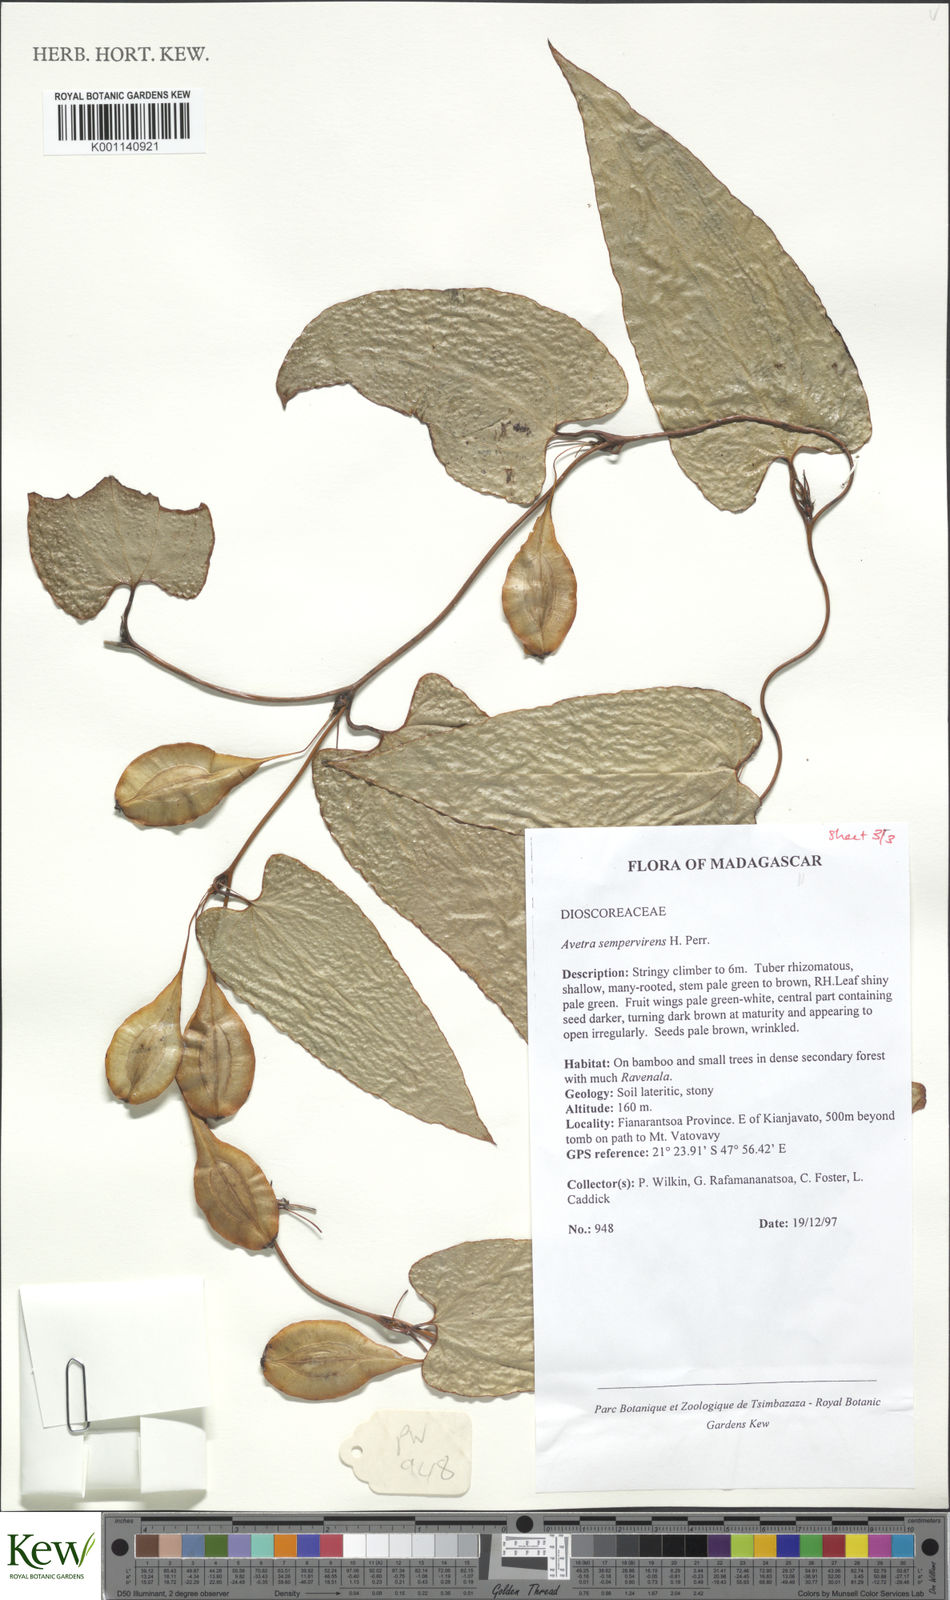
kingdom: Plantae
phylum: Tracheophyta
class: Liliopsida
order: Dioscoreales
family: Dioscoreaceae
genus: Trichopus
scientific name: Trichopus sempervirens
